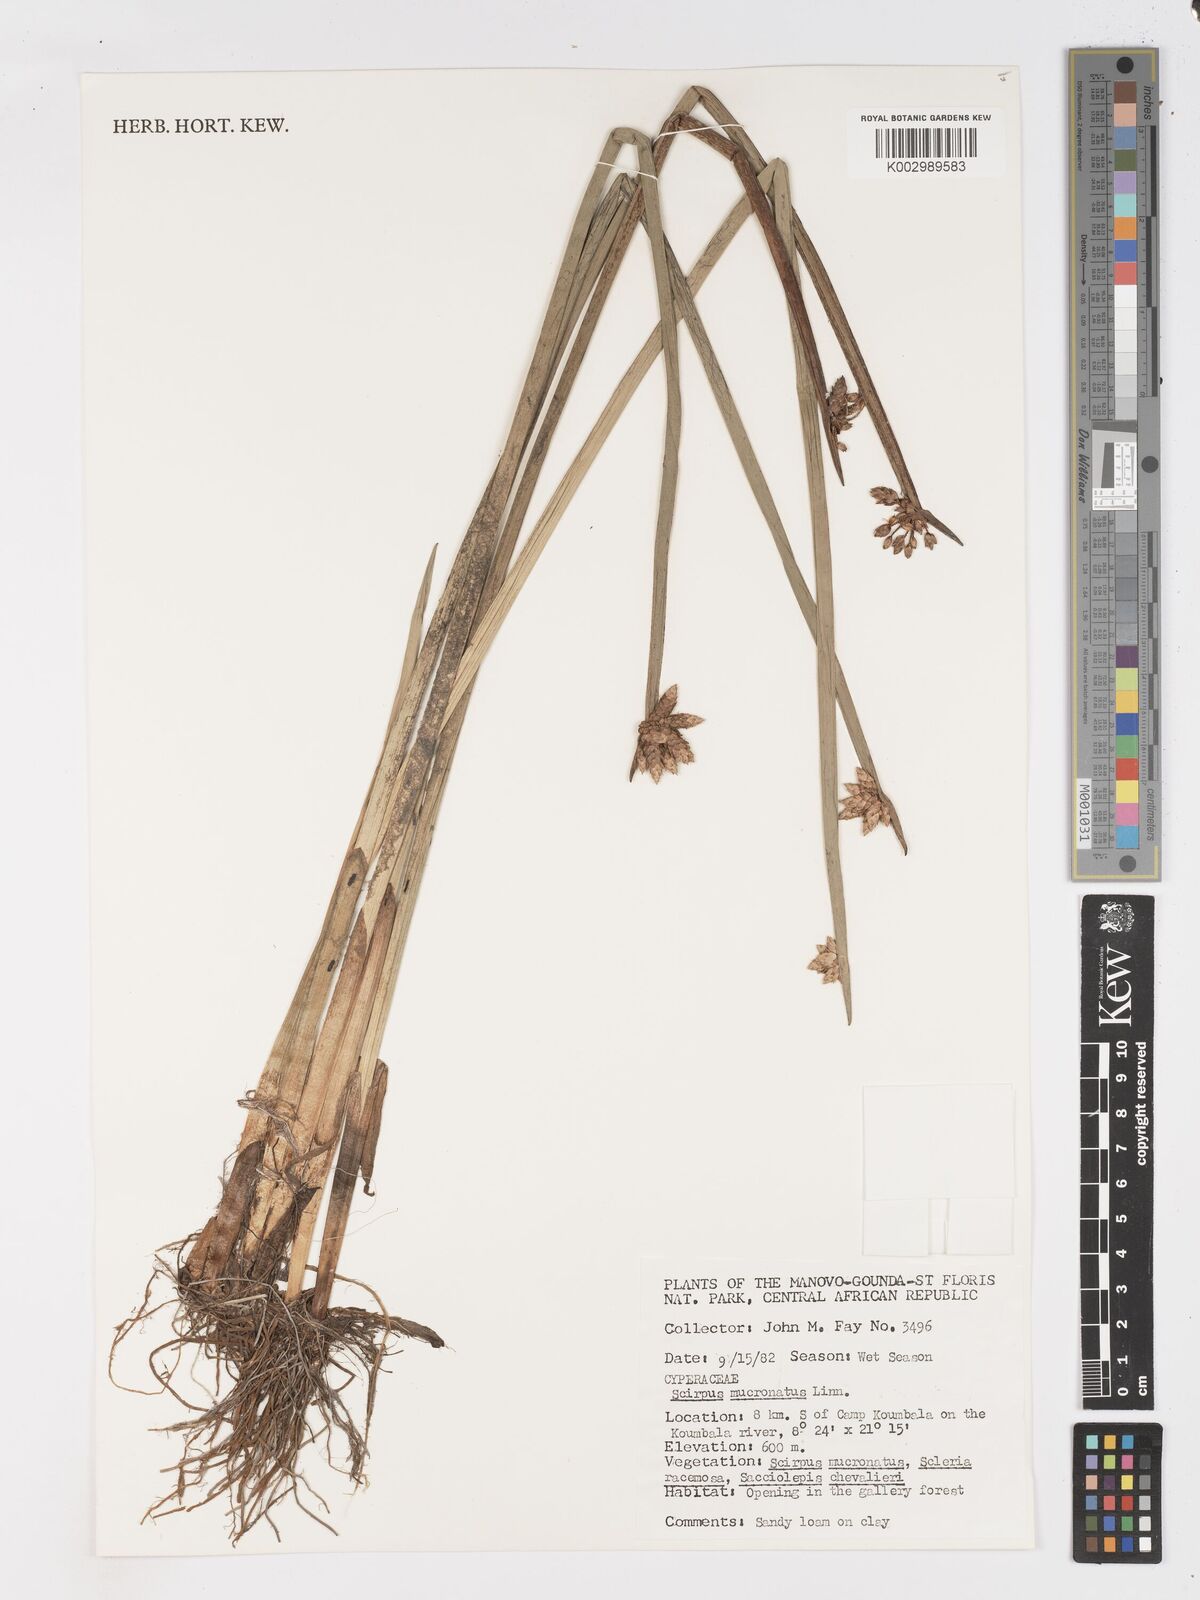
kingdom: Plantae
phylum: Tracheophyta
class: Liliopsida
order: Poales
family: Cyperaceae
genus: Schoenoplectiella
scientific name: Schoenoplectiella mucronata
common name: Bog bulrush
